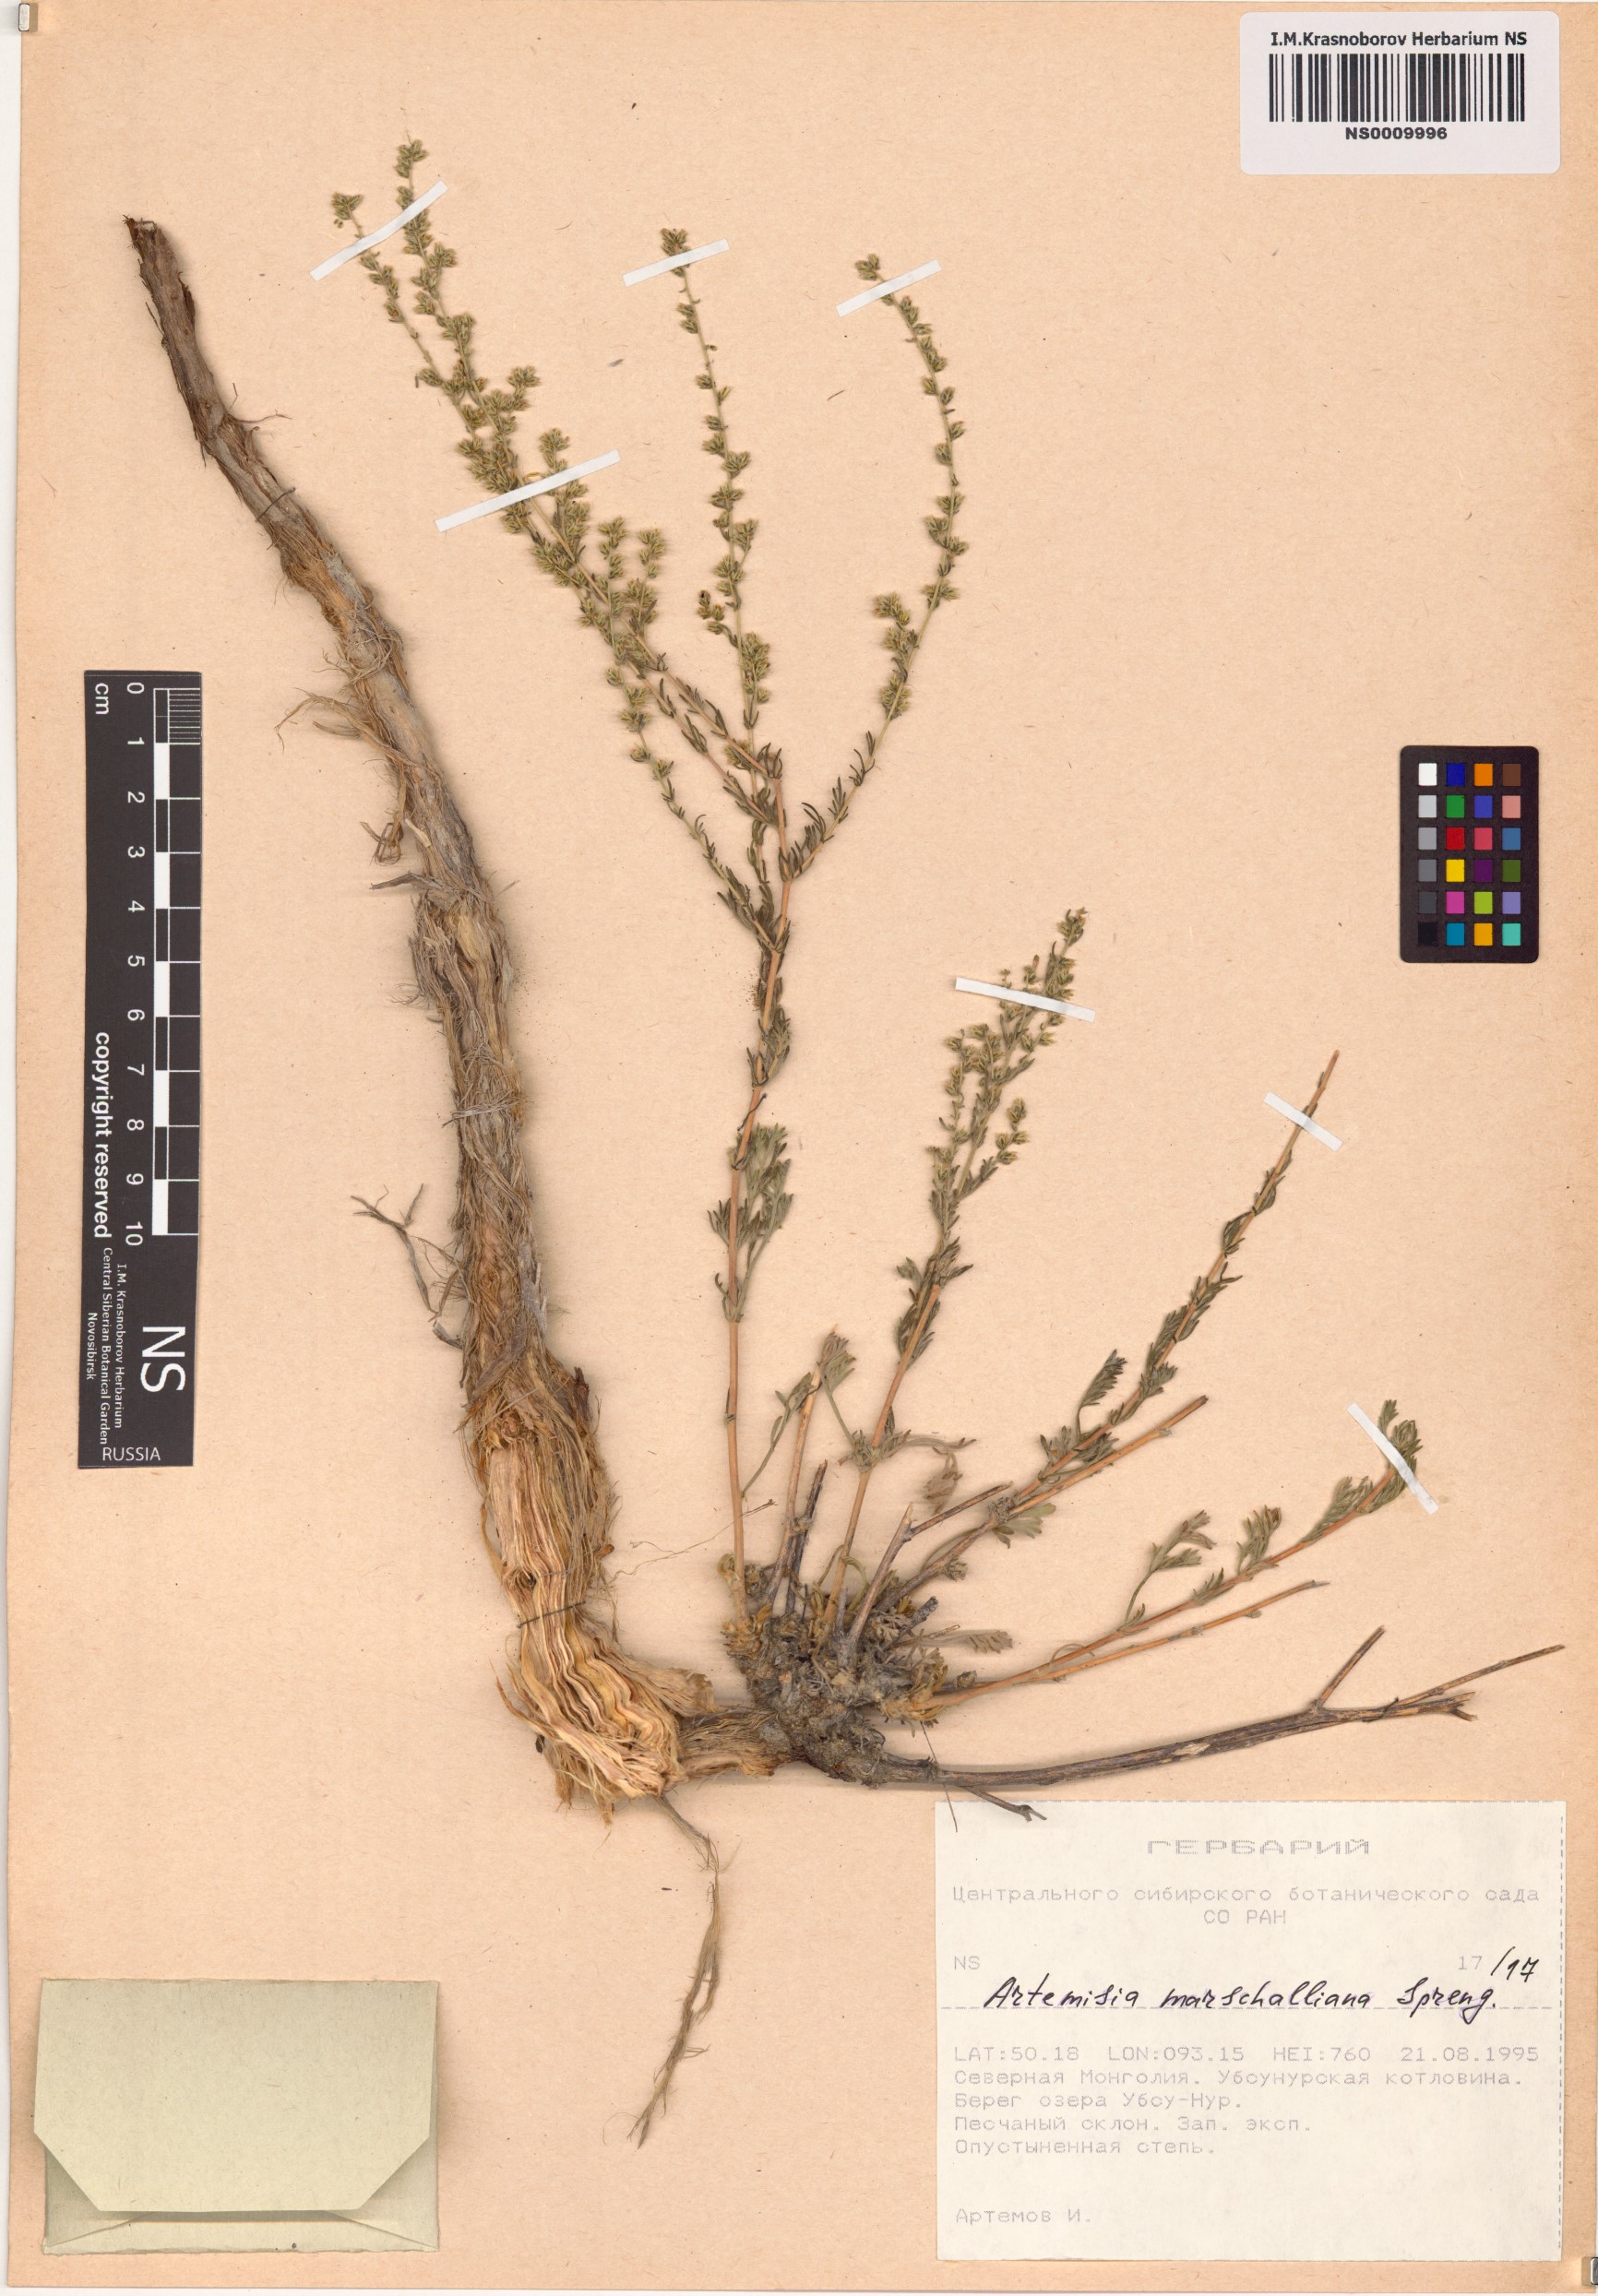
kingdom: Plantae
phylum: Tracheophyta
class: Magnoliopsida
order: Asterales
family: Asteraceae
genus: Artemisia
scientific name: Artemisia marschalliana
